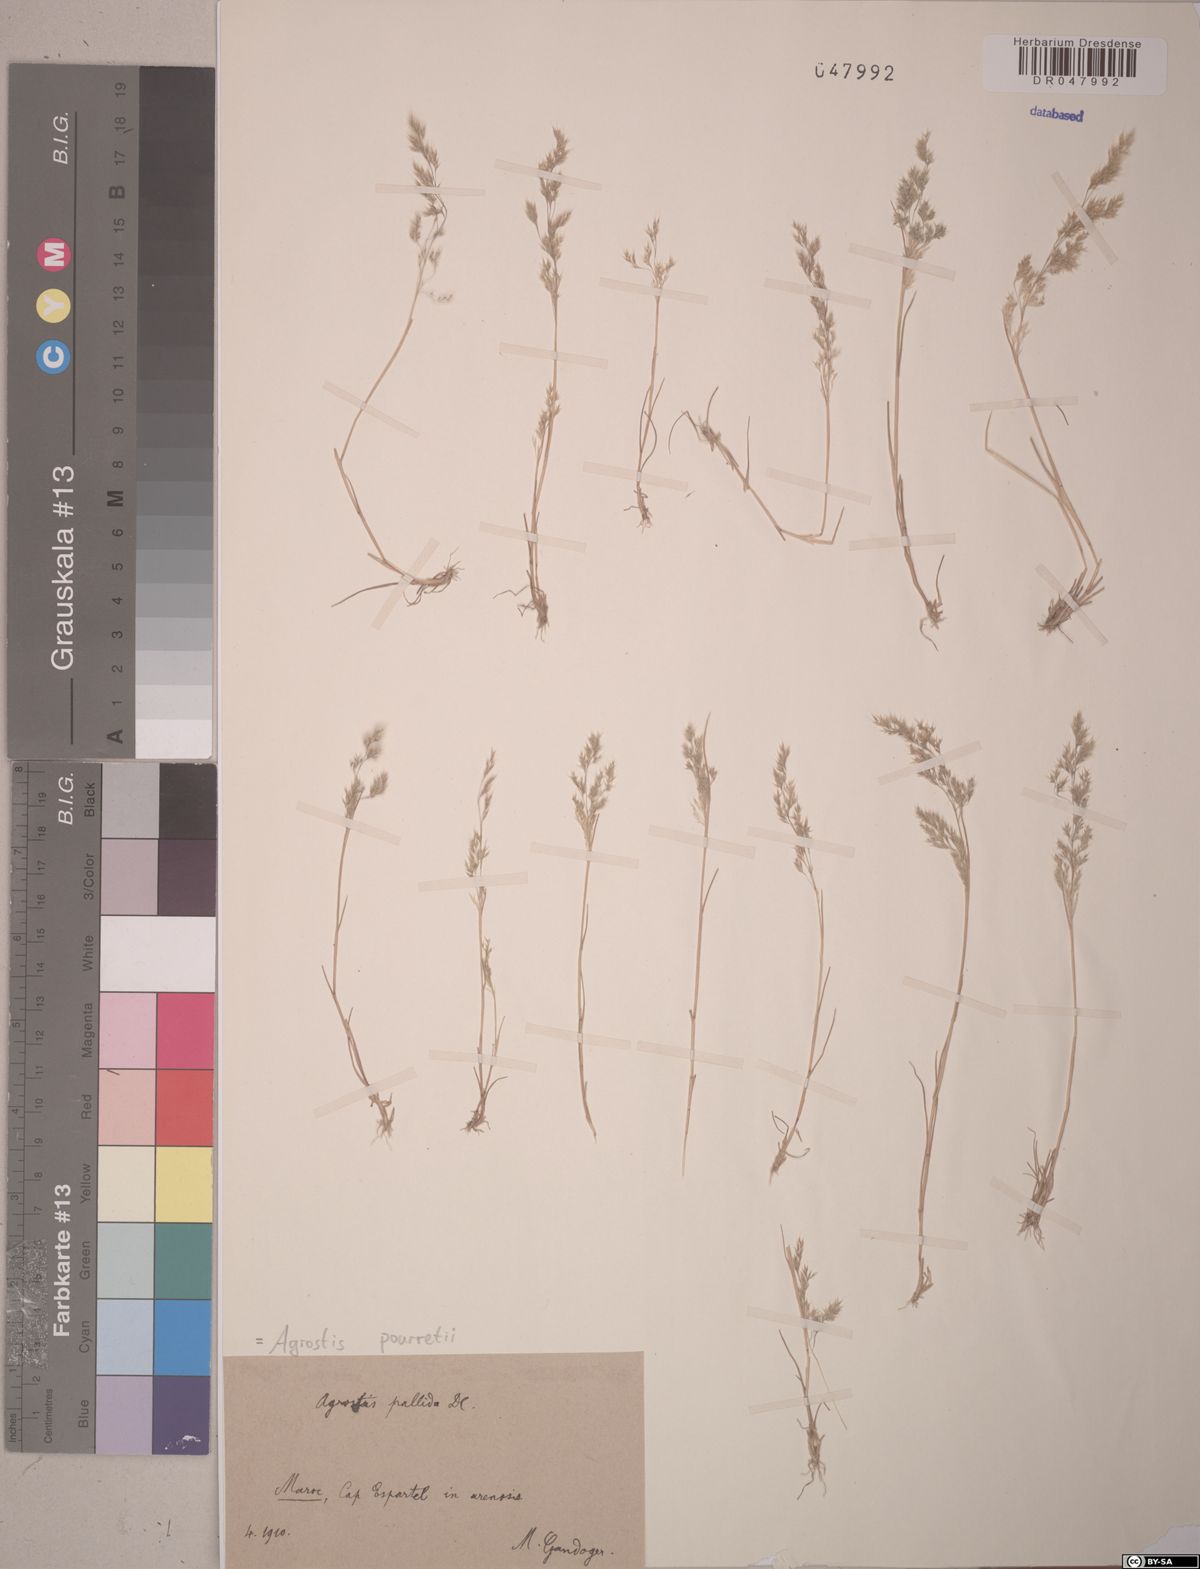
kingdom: Plantae
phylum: Tracheophyta
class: Liliopsida
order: Poales
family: Poaceae
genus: Agrostis
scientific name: Agrostis pourretii
